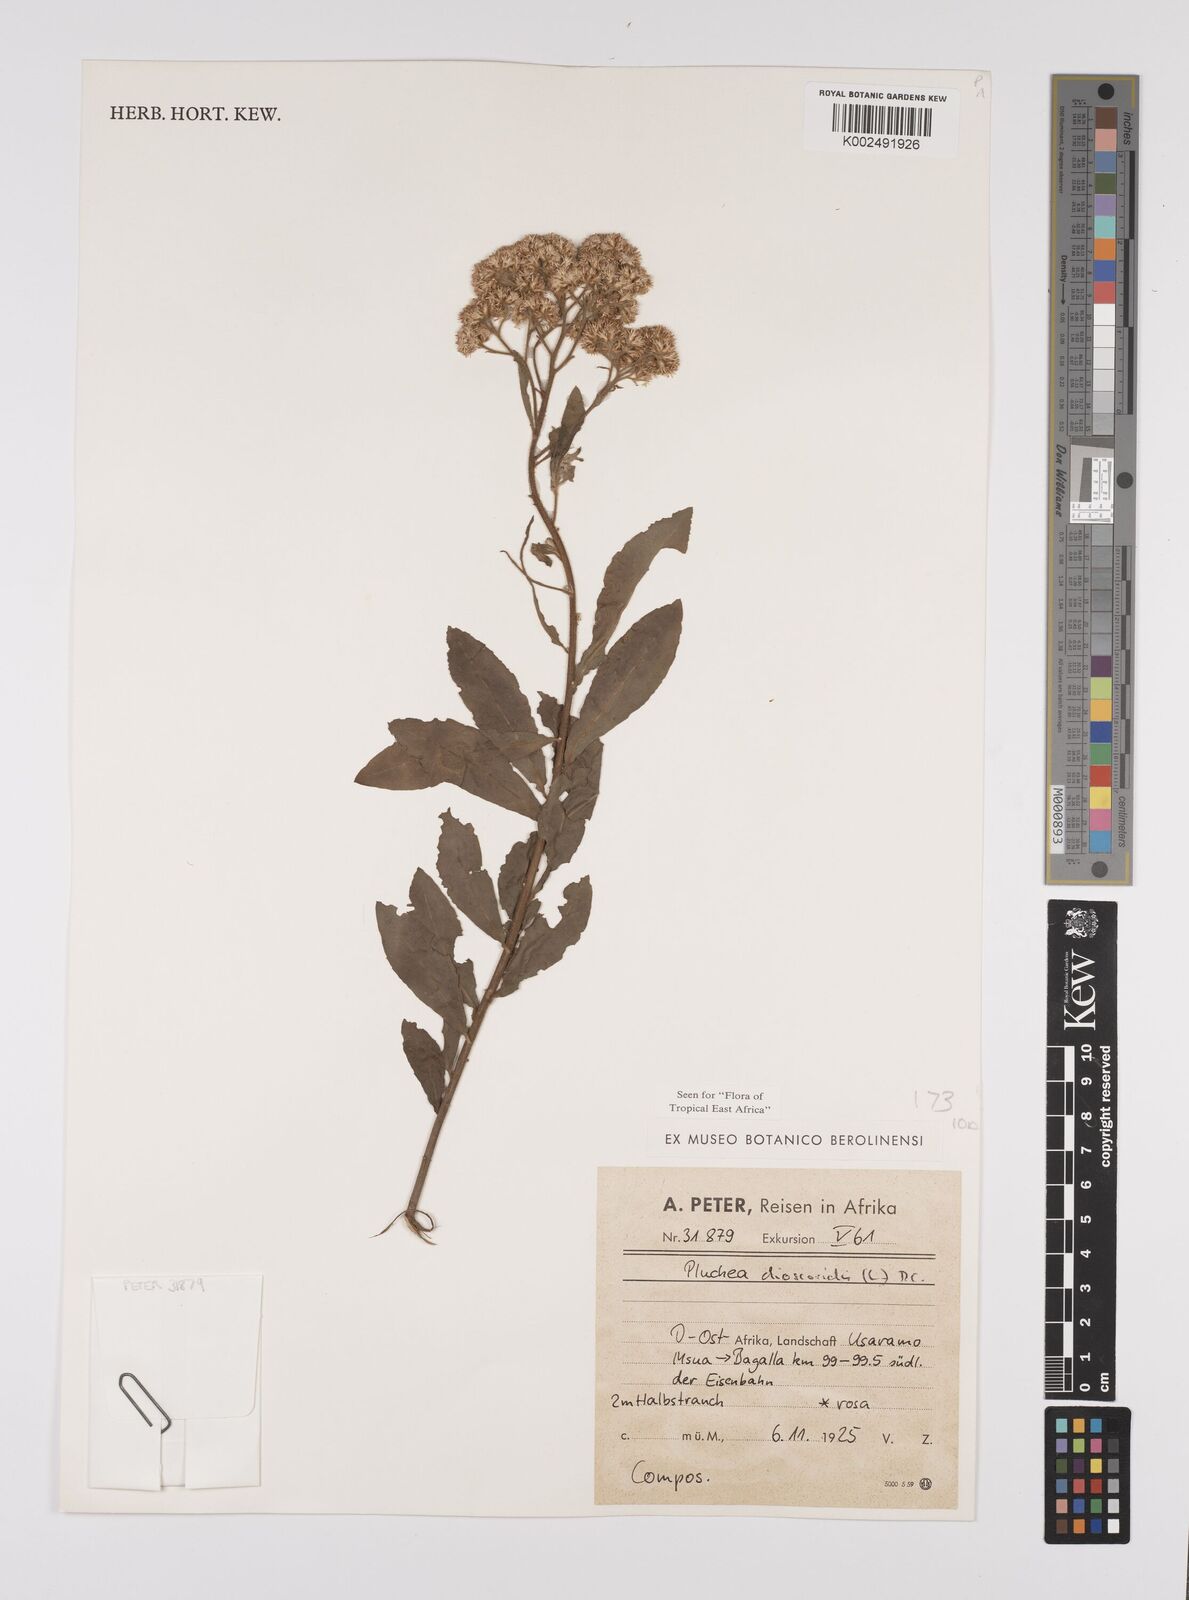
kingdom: Plantae
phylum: Tracheophyta
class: Magnoliopsida
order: Asterales
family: Asteraceae
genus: Pluchea
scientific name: Pluchea dioscoridis
